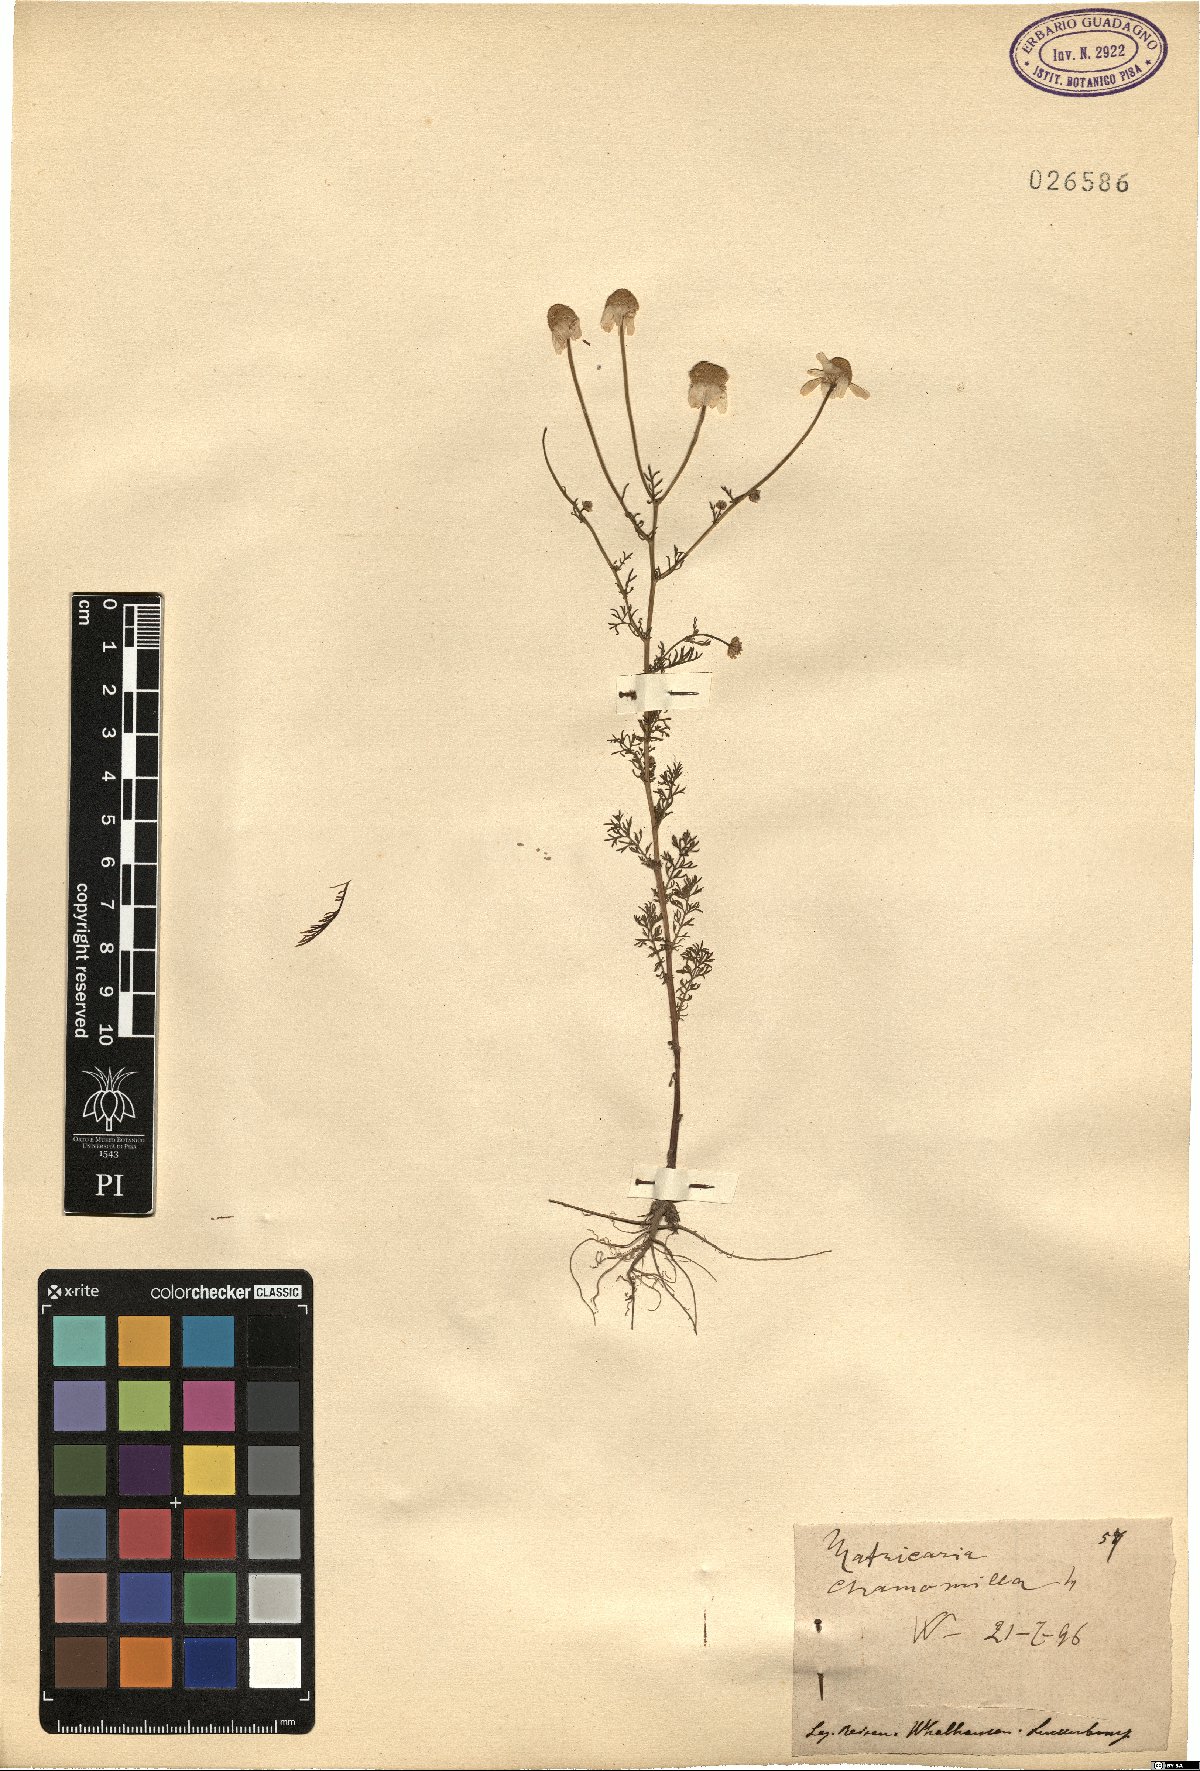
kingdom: Plantae
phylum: Tracheophyta
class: Magnoliopsida
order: Asterales
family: Asteraceae
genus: Matricaria
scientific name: Matricaria chamomilla
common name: Scented mayweed
